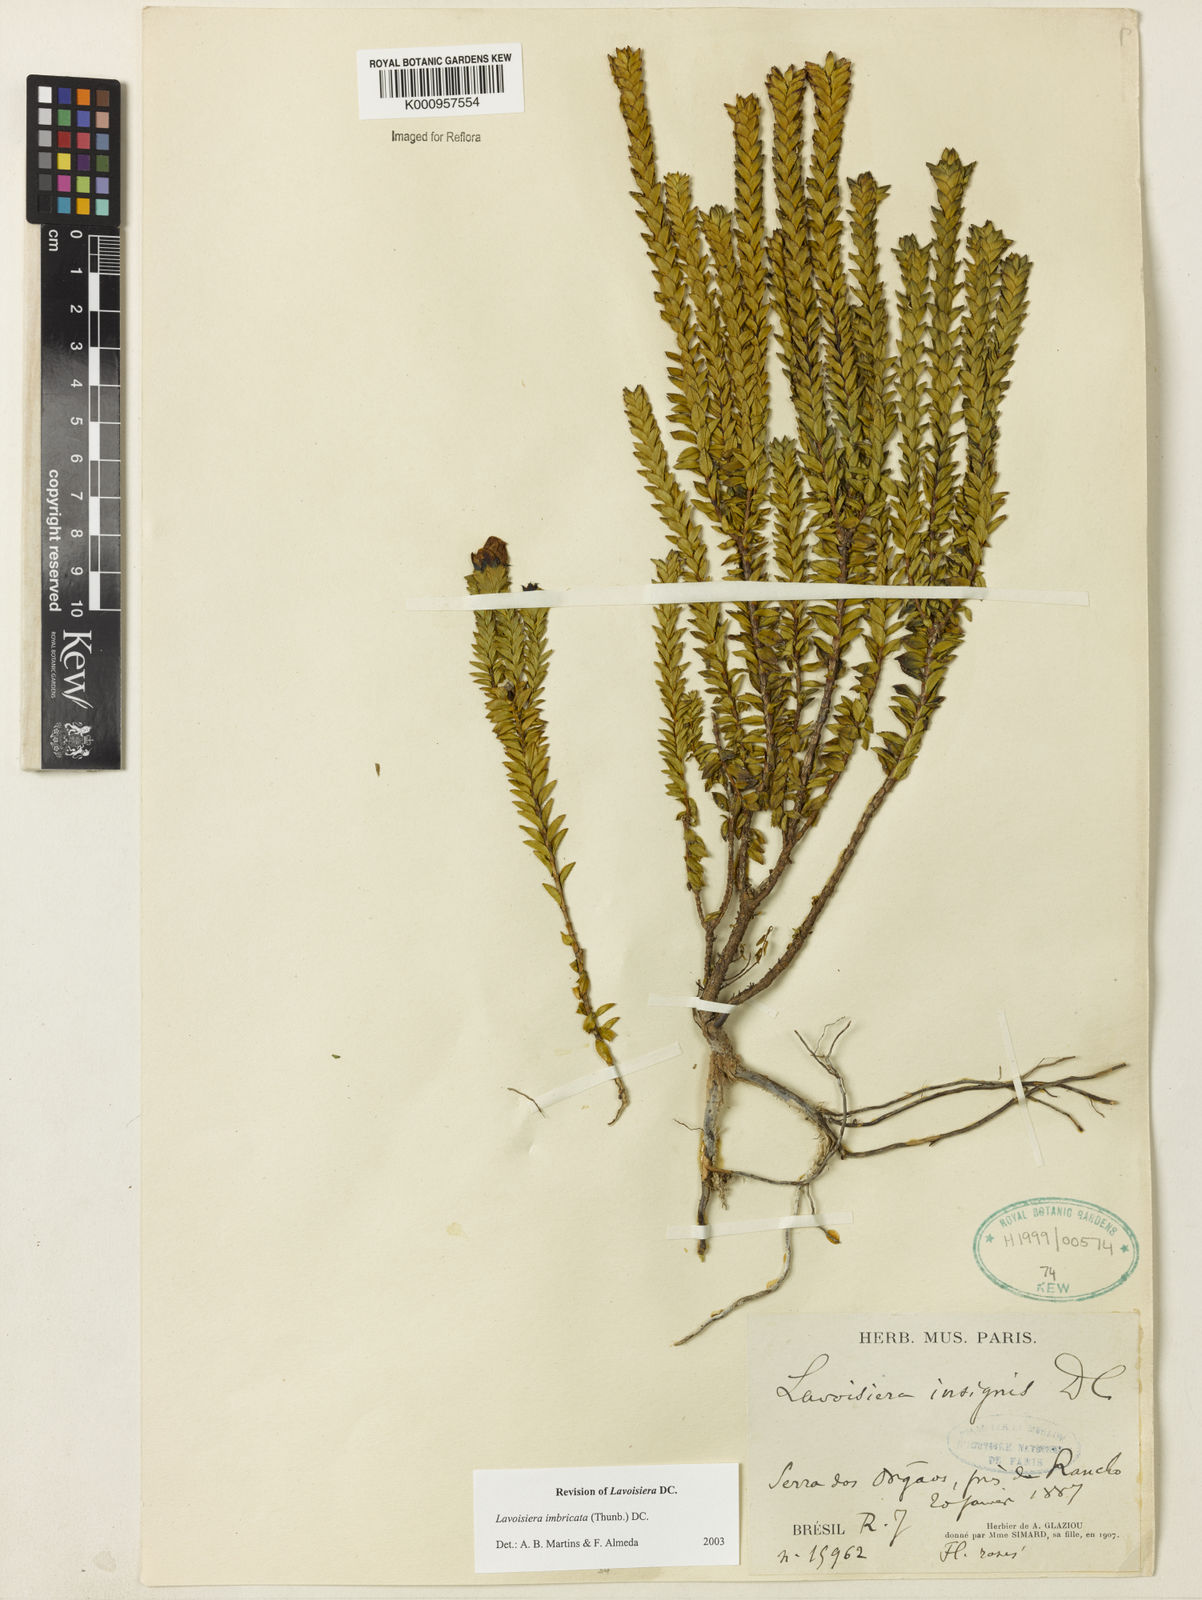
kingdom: Plantae
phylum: Tracheophyta
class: Magnoliopsida
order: Myrtales
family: Melastomataceae
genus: Microlicia
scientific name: Microlicia cataphracta
